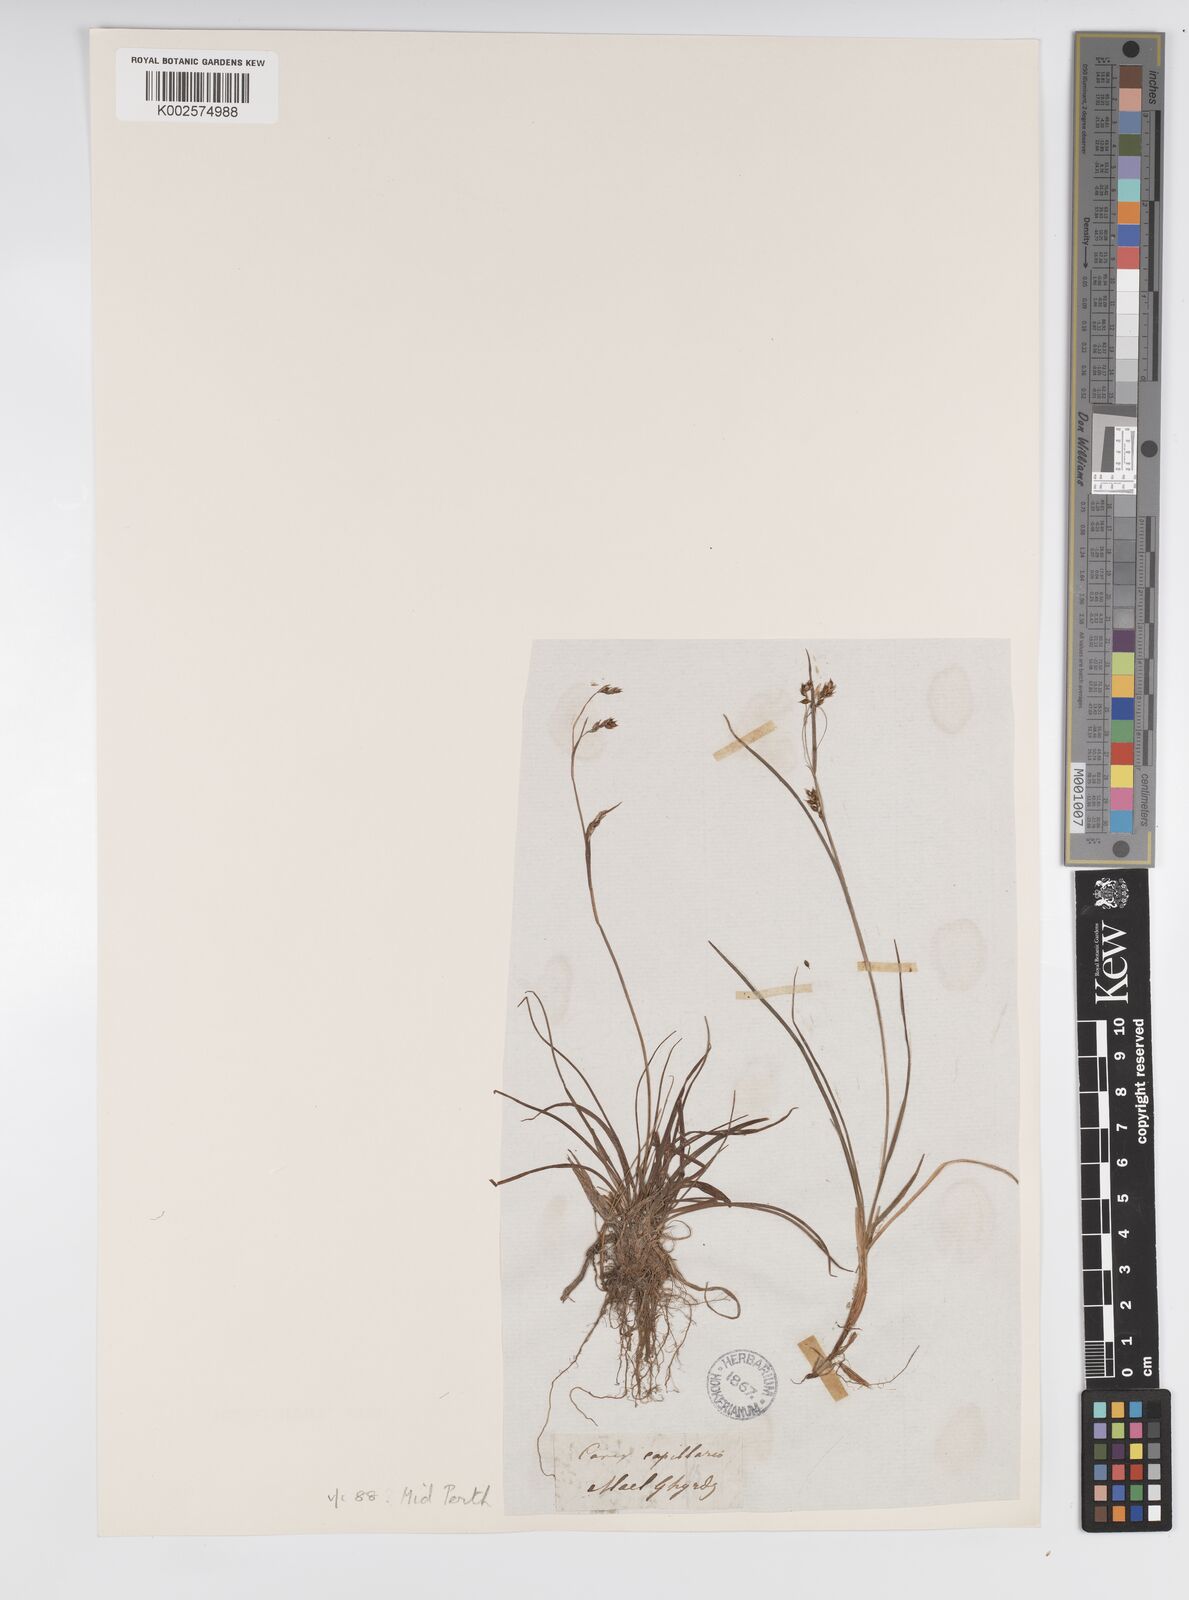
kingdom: Plantae
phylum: Tracheophyta
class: Liliopsida
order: Poales
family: Cyperaceae
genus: Carex
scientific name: Carex capillaris
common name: Hair sedge
